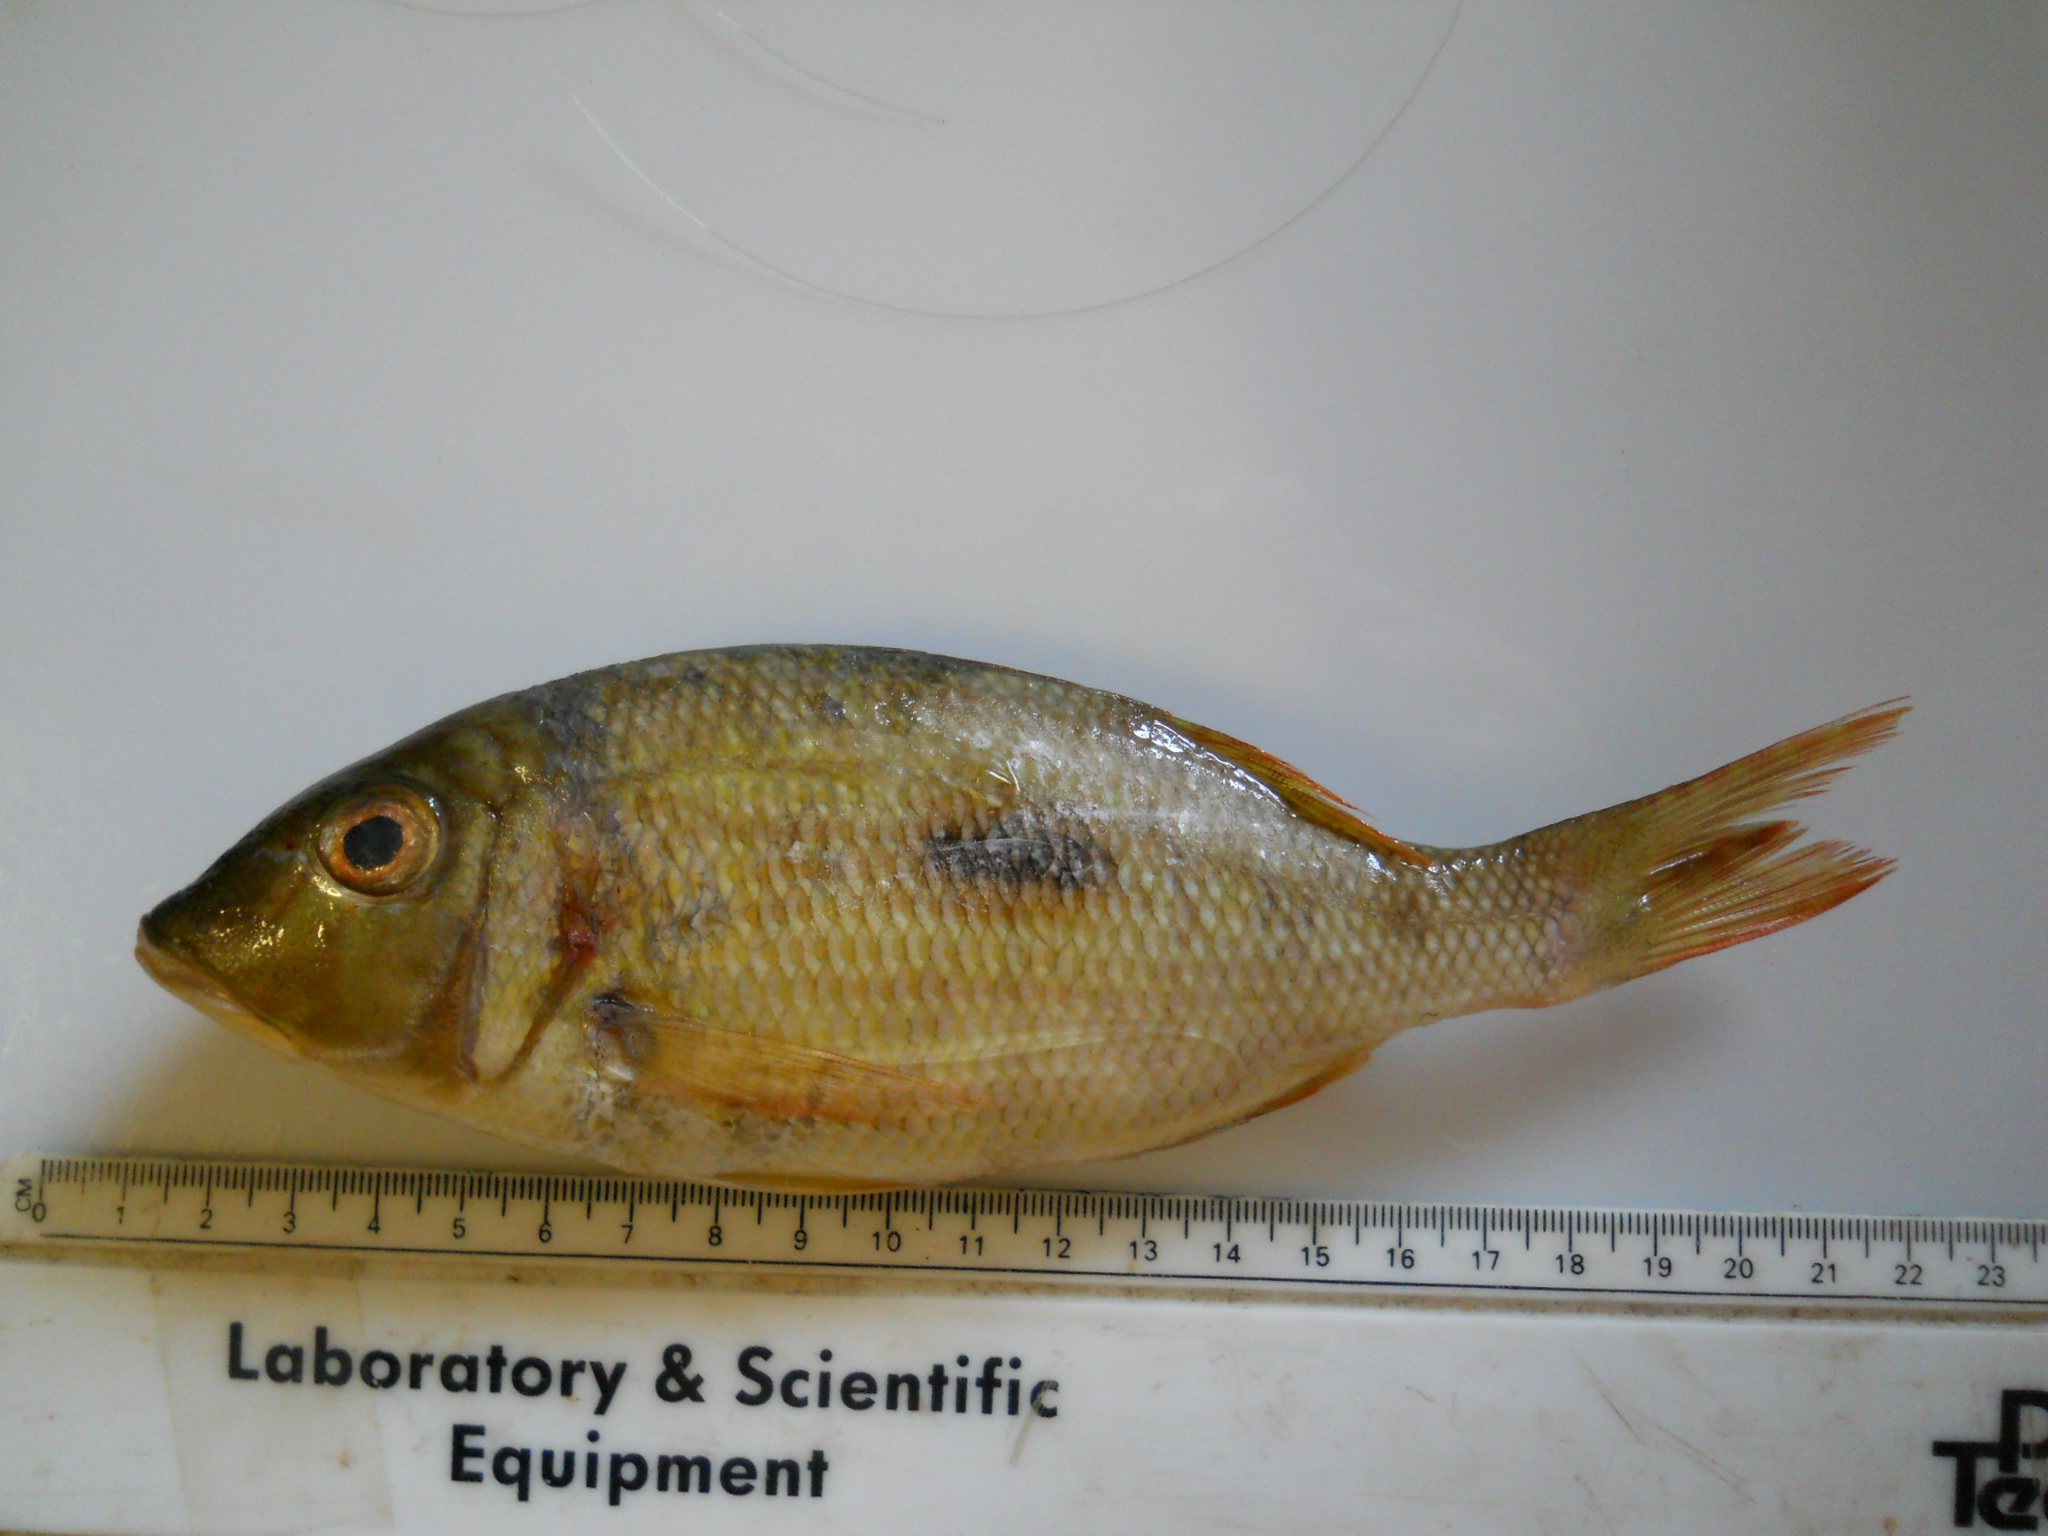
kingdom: Animalia
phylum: Chordata
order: Perciformes
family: Lethrinidae
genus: Lethrinus
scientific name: Lethrinus harak
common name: Blackspot emperor
